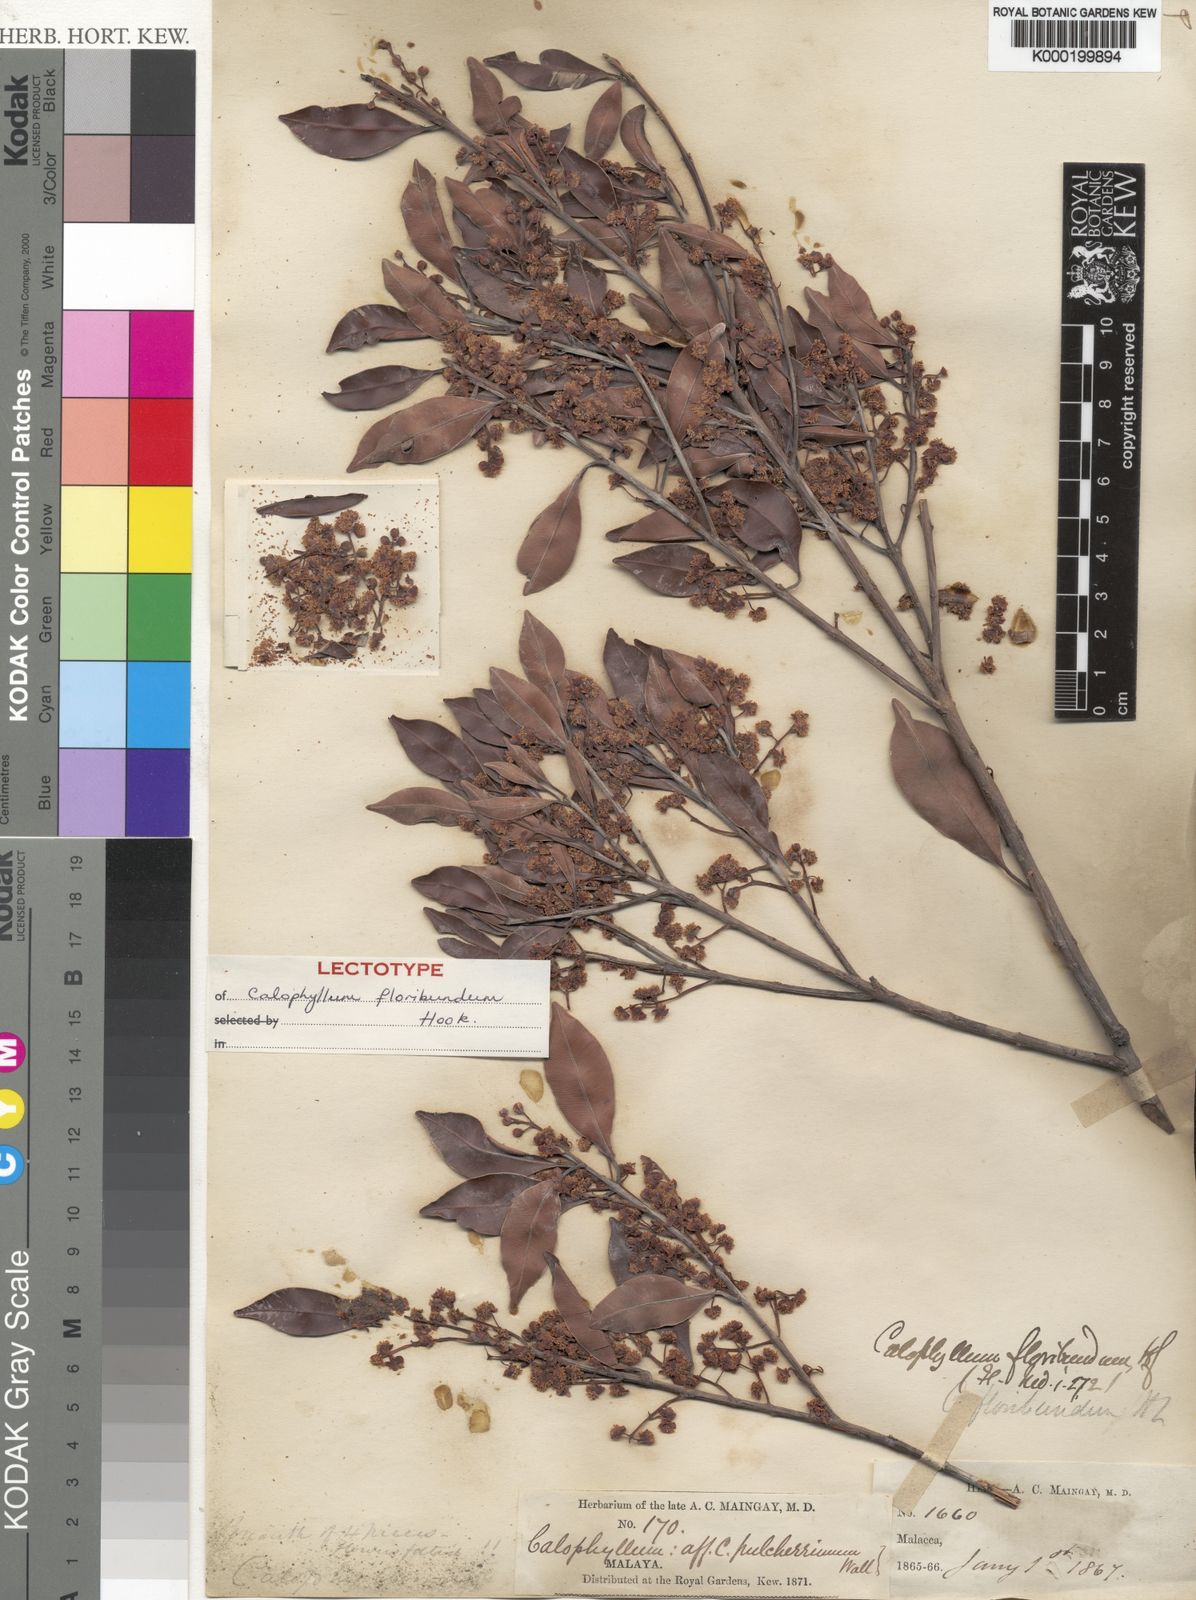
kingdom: Plantae
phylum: Tracheophyta
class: Magnoliopsida
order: Malpighiales
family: Calophyllaceae
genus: Calophyllum
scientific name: Calophyllum tetrapterum
